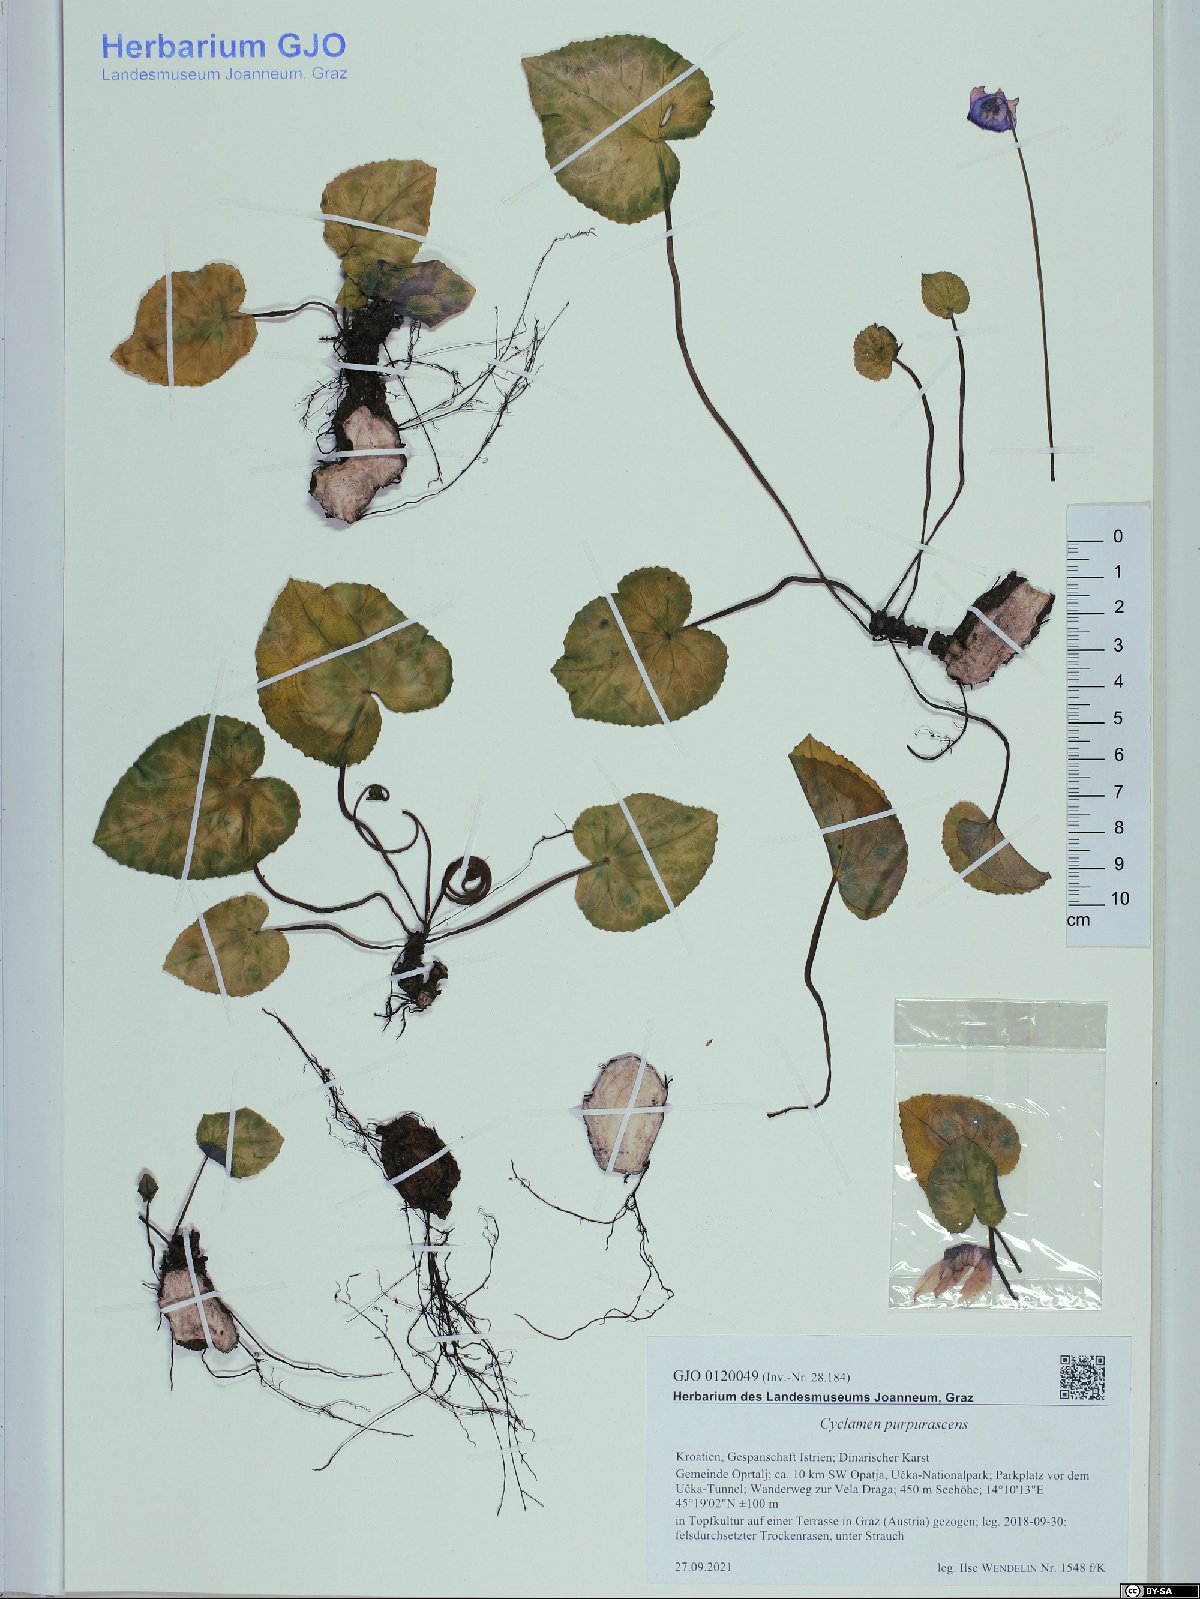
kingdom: Plantae
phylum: Tracheophyta
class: Magnoliopsida
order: Ericales
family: Primulaceae
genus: Cyclamen
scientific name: Cyclamen purpurascens
